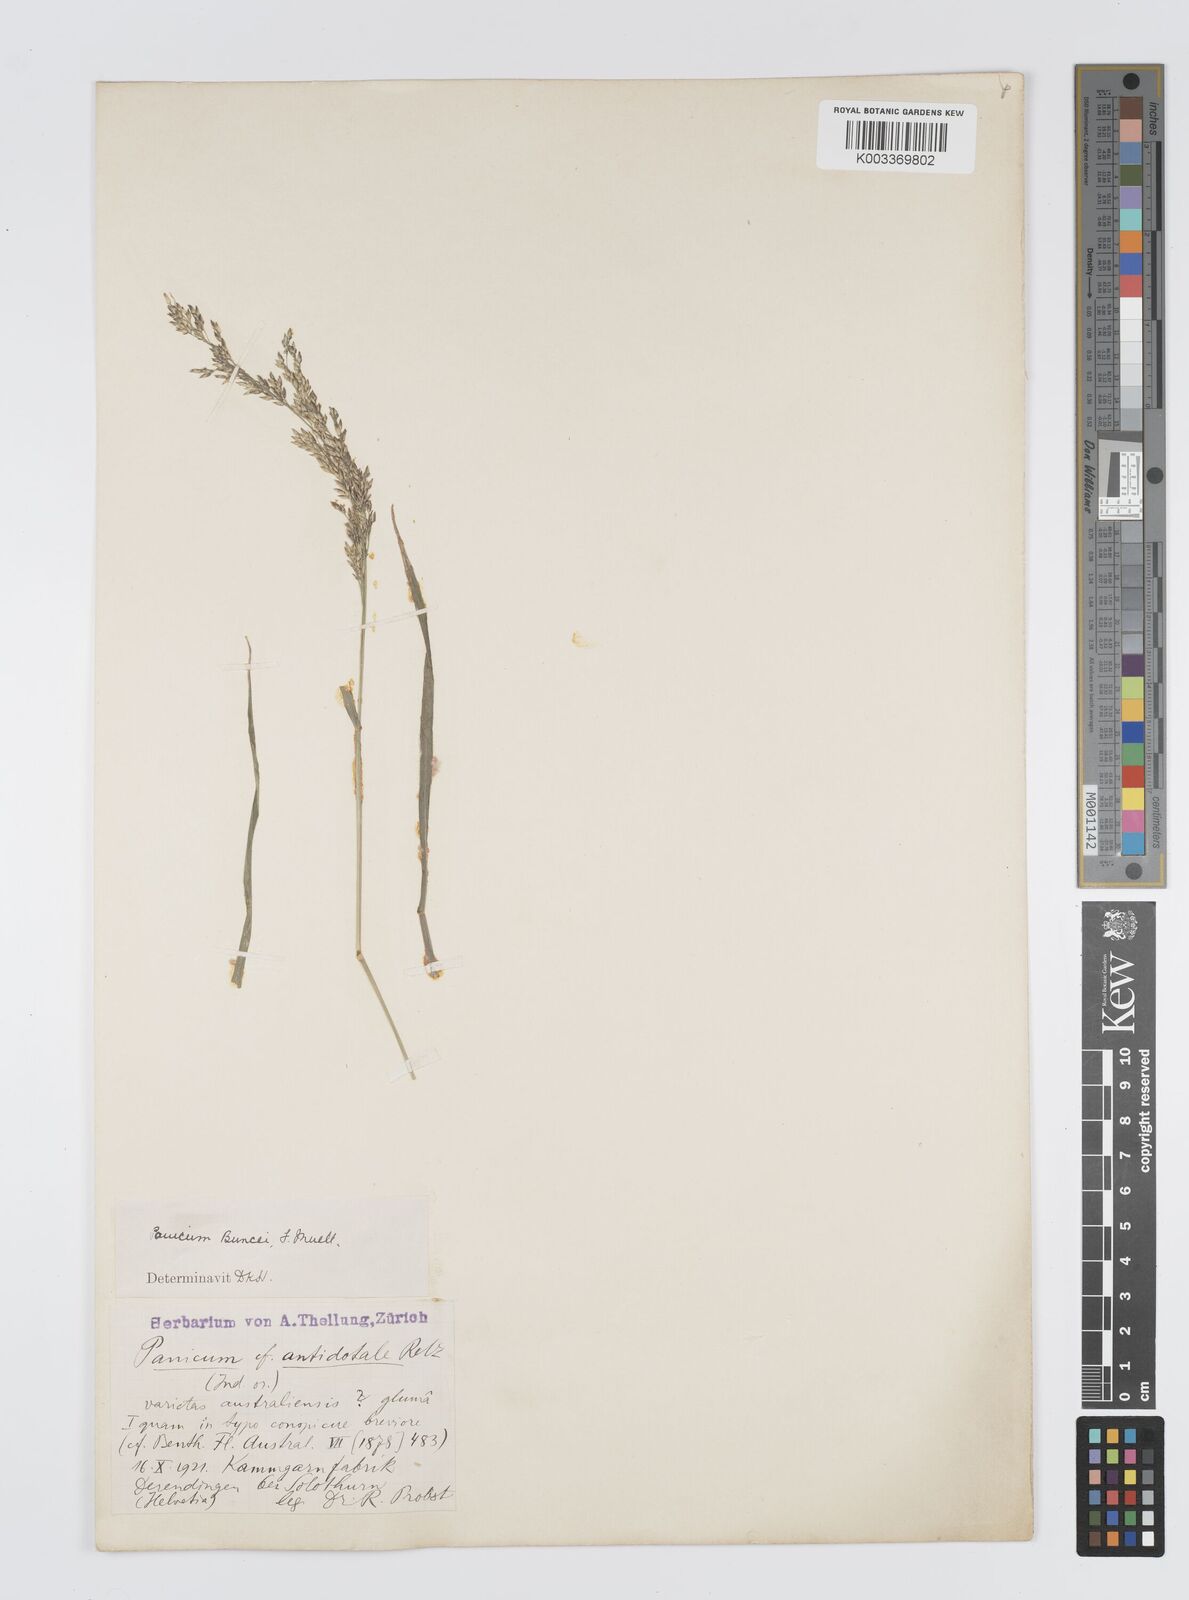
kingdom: Plantae
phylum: Tracheophyta
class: Liliopsida
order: Poales
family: Poaceae
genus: Panicum
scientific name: Panicum buncei
